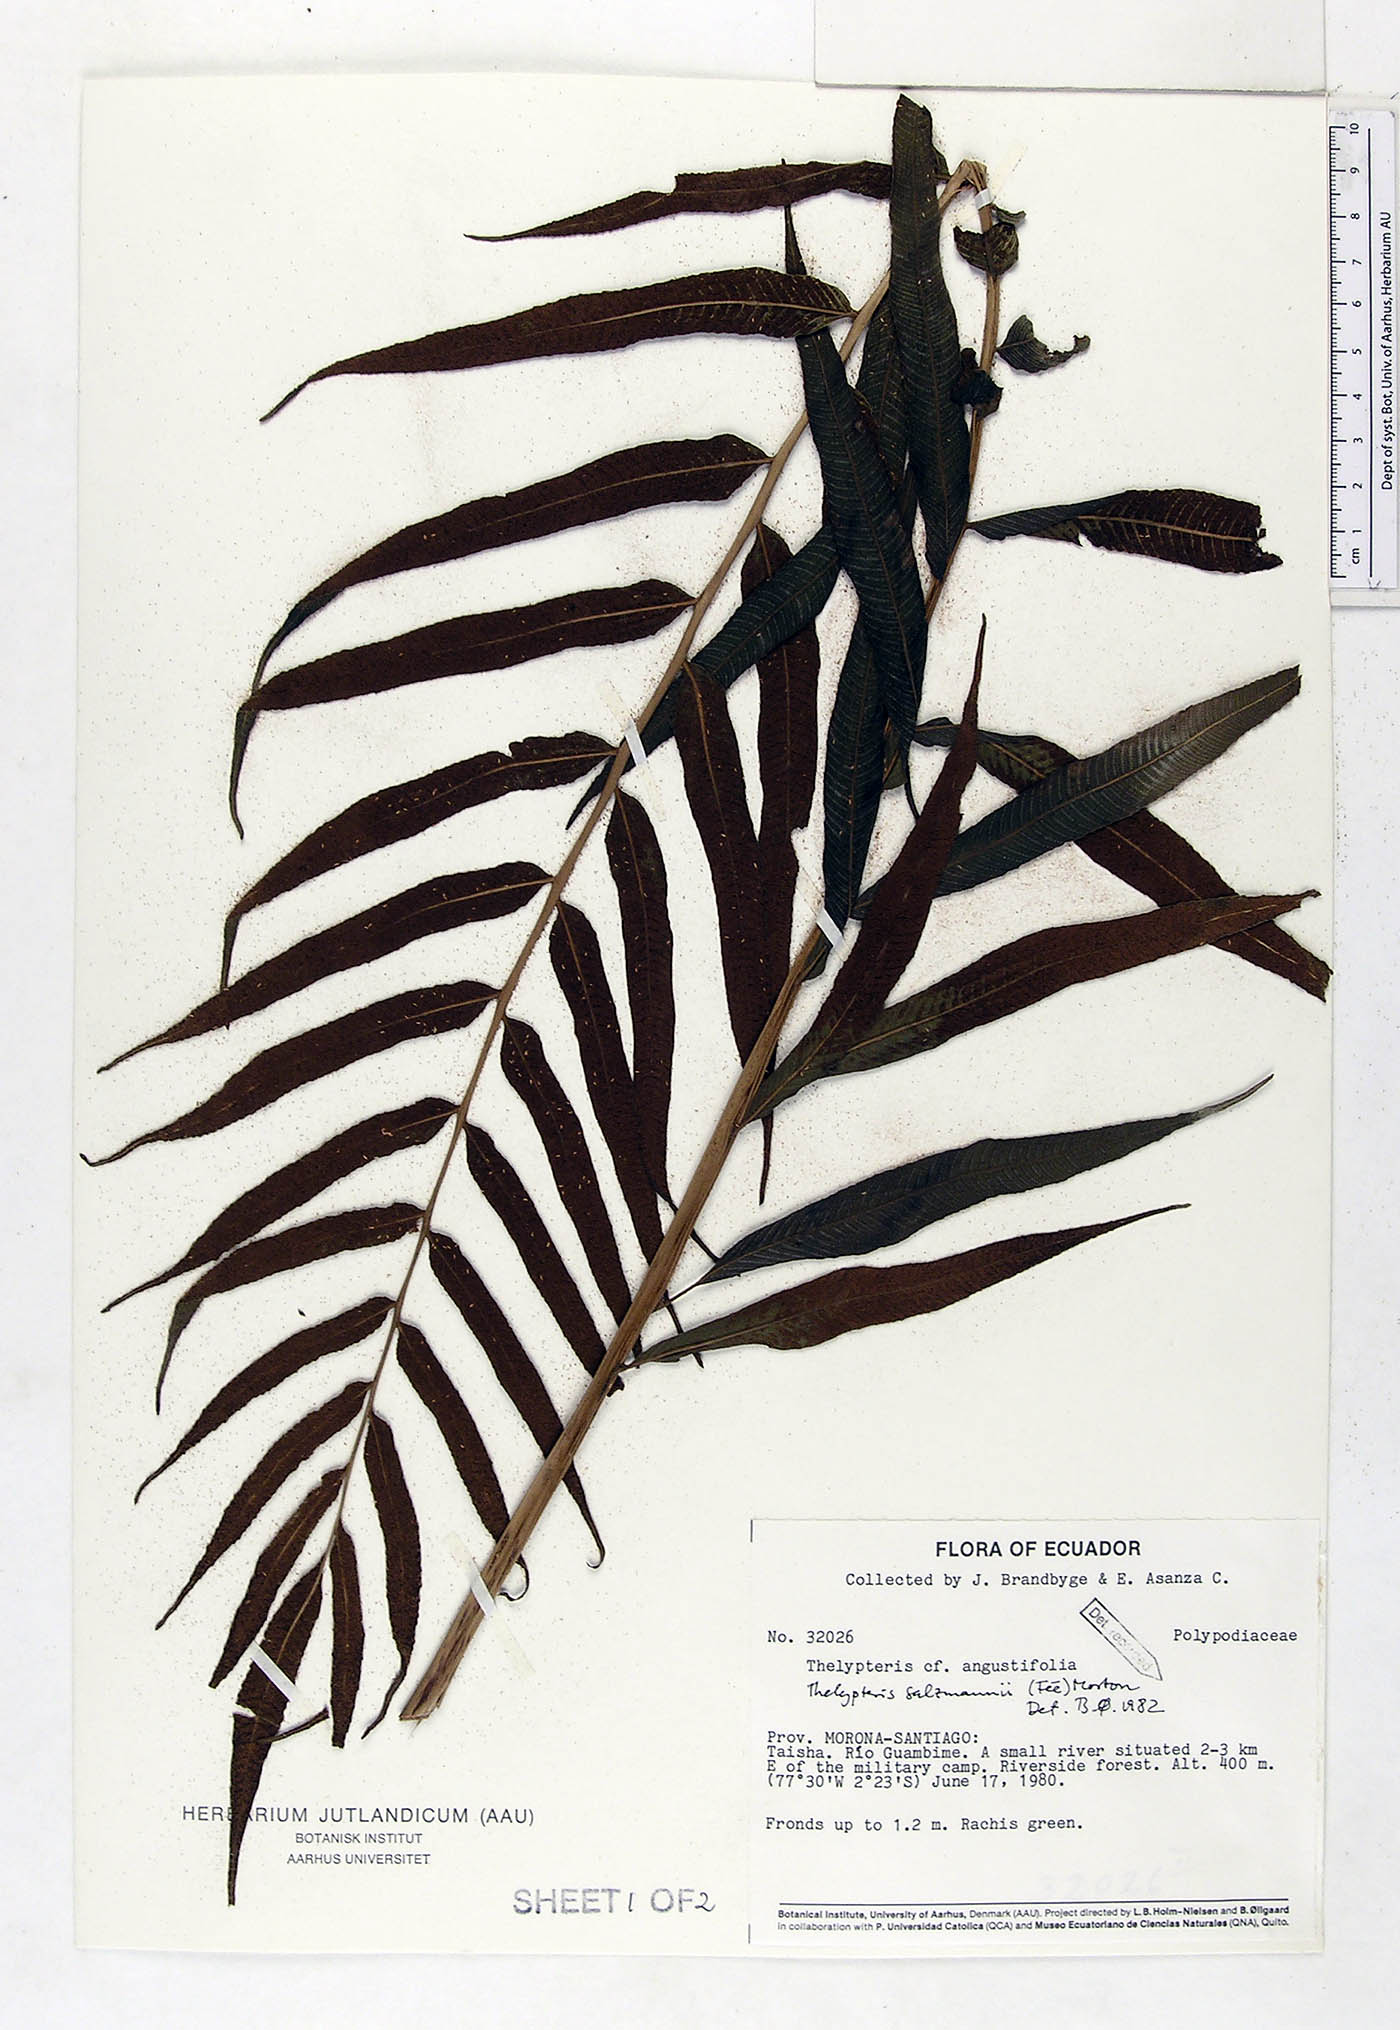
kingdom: Plantae
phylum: Tracheophyta
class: Polypodiopsida
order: Polypodiales
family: Thelypteridaceae
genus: Meniscium
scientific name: Meniscium arborescens
